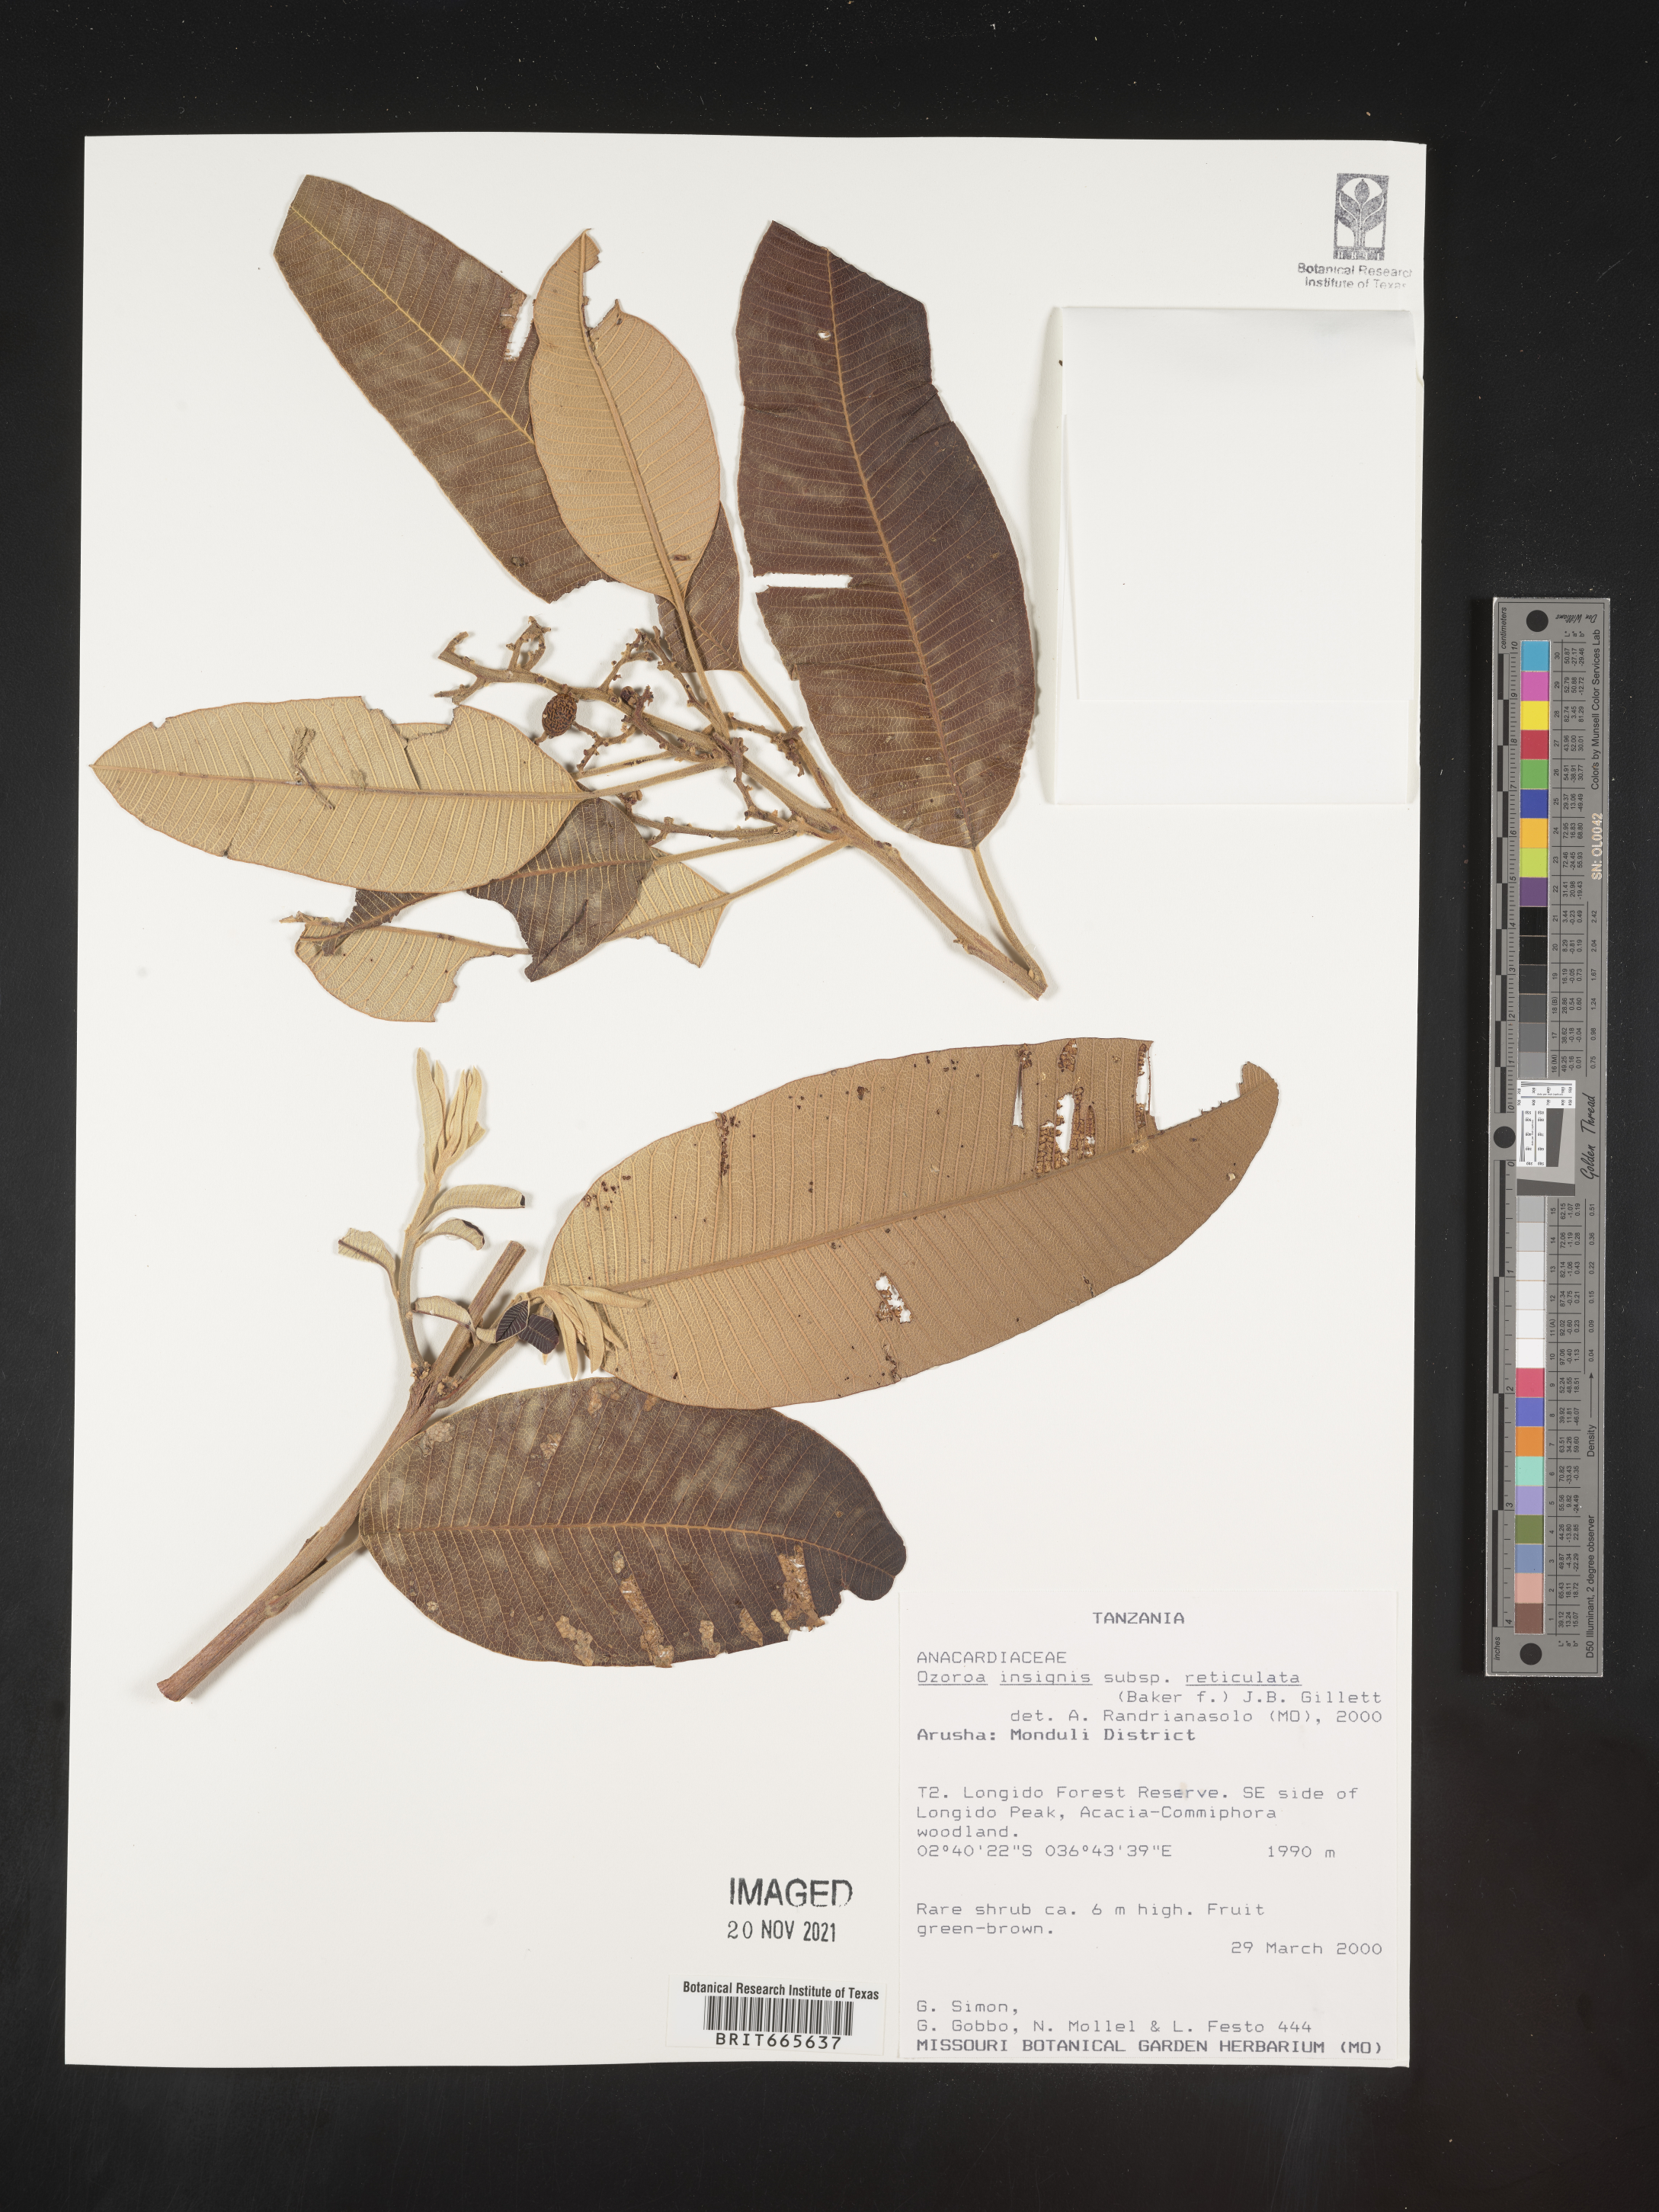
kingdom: Plantae
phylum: Tracheophyta
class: Magnoliopsida
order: Sapindales
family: Anacardiaceae
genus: Ozoroa
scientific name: Ozoroa
